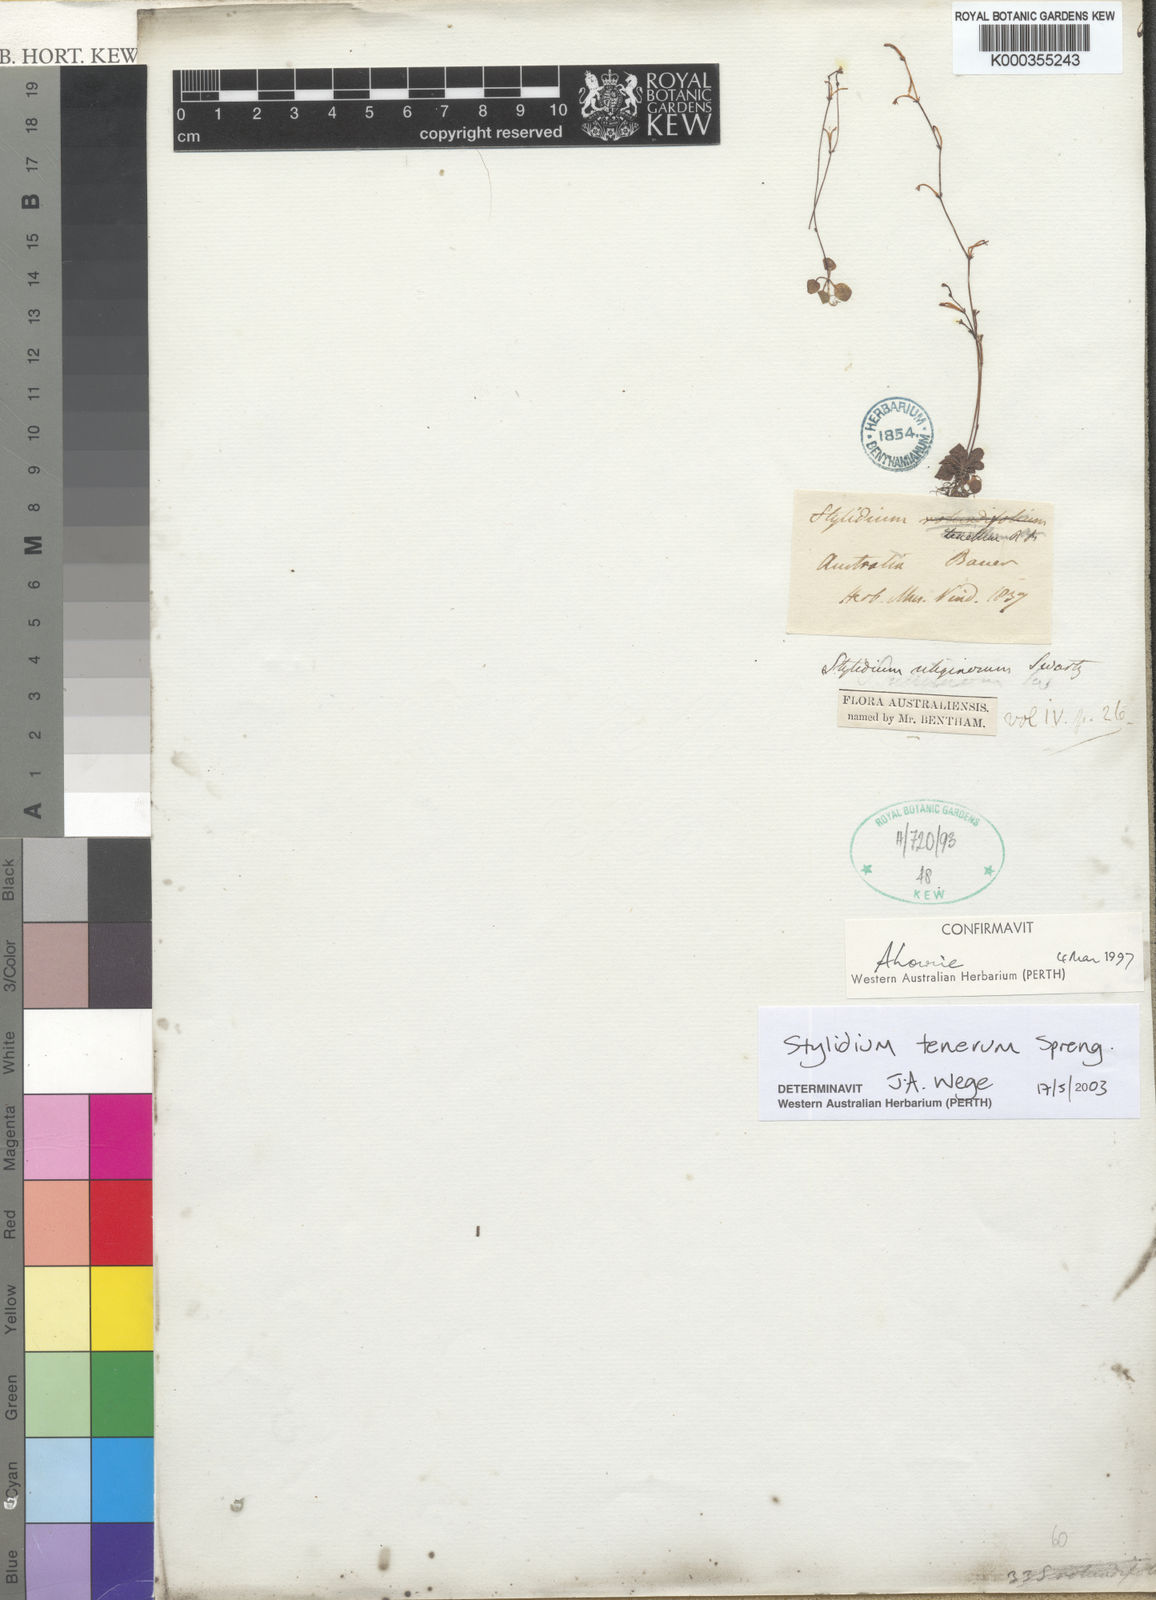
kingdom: Plantae
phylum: Tracheophyta
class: Magnoliopsida
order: Asterales
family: Stylidiaceae
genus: Stylidium
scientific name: Stylidium tenerum
